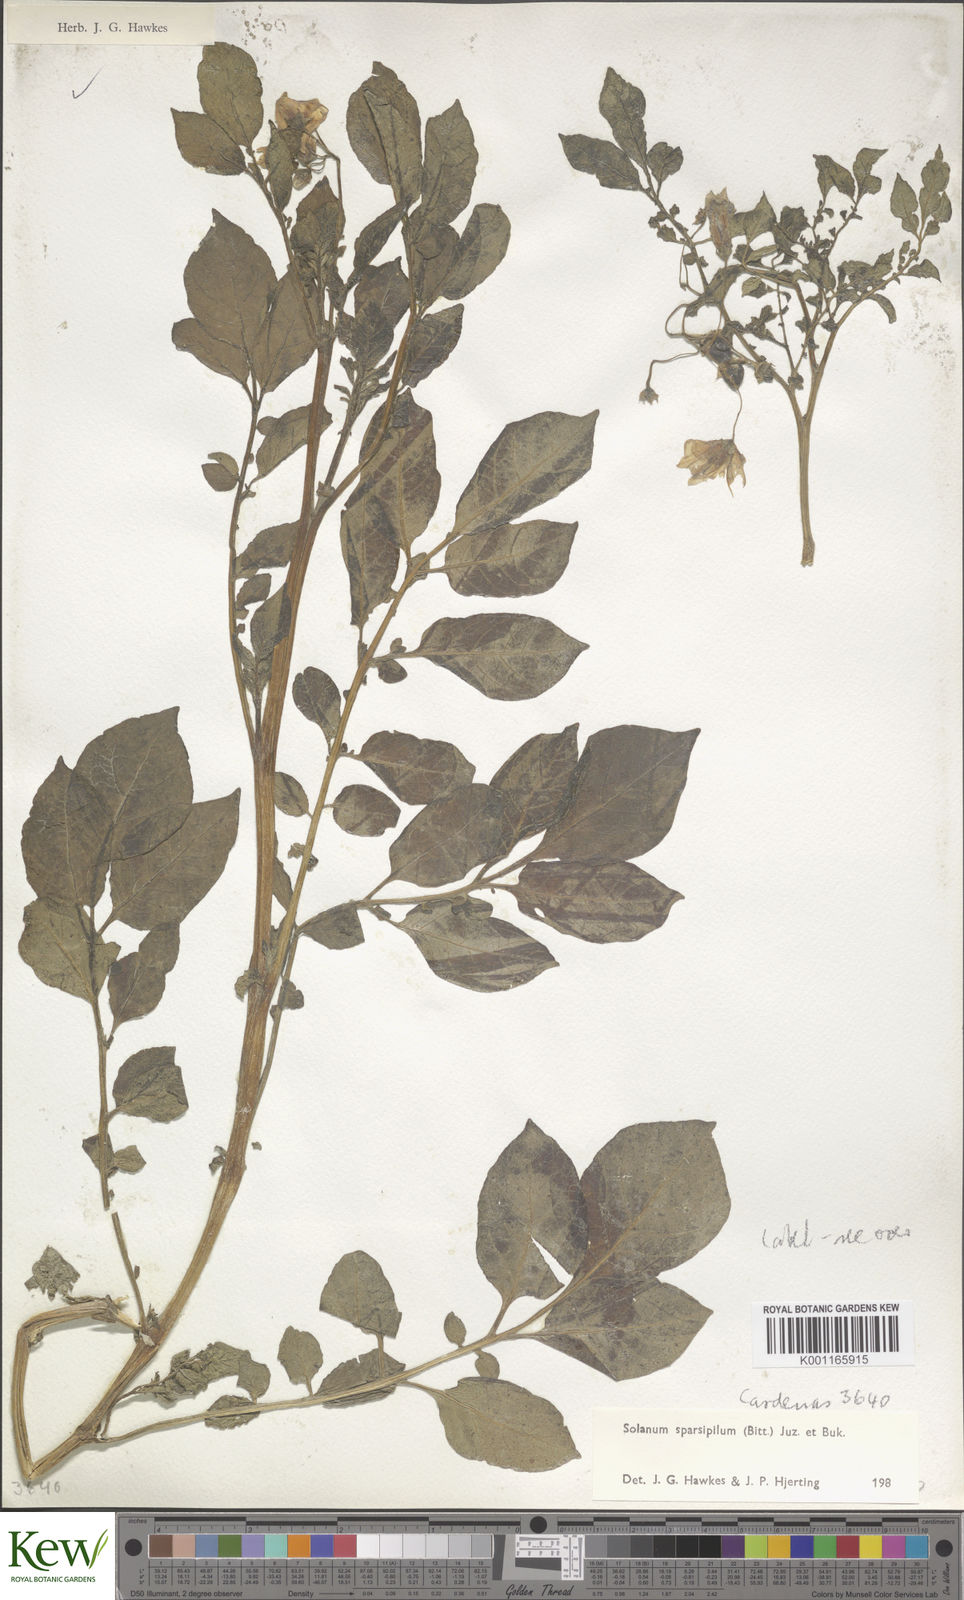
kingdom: Plantae
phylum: Tracheophyta
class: Magnoliopsida
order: Solanales
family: Solanaceae
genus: Solanum
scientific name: Solanum brevicaule
